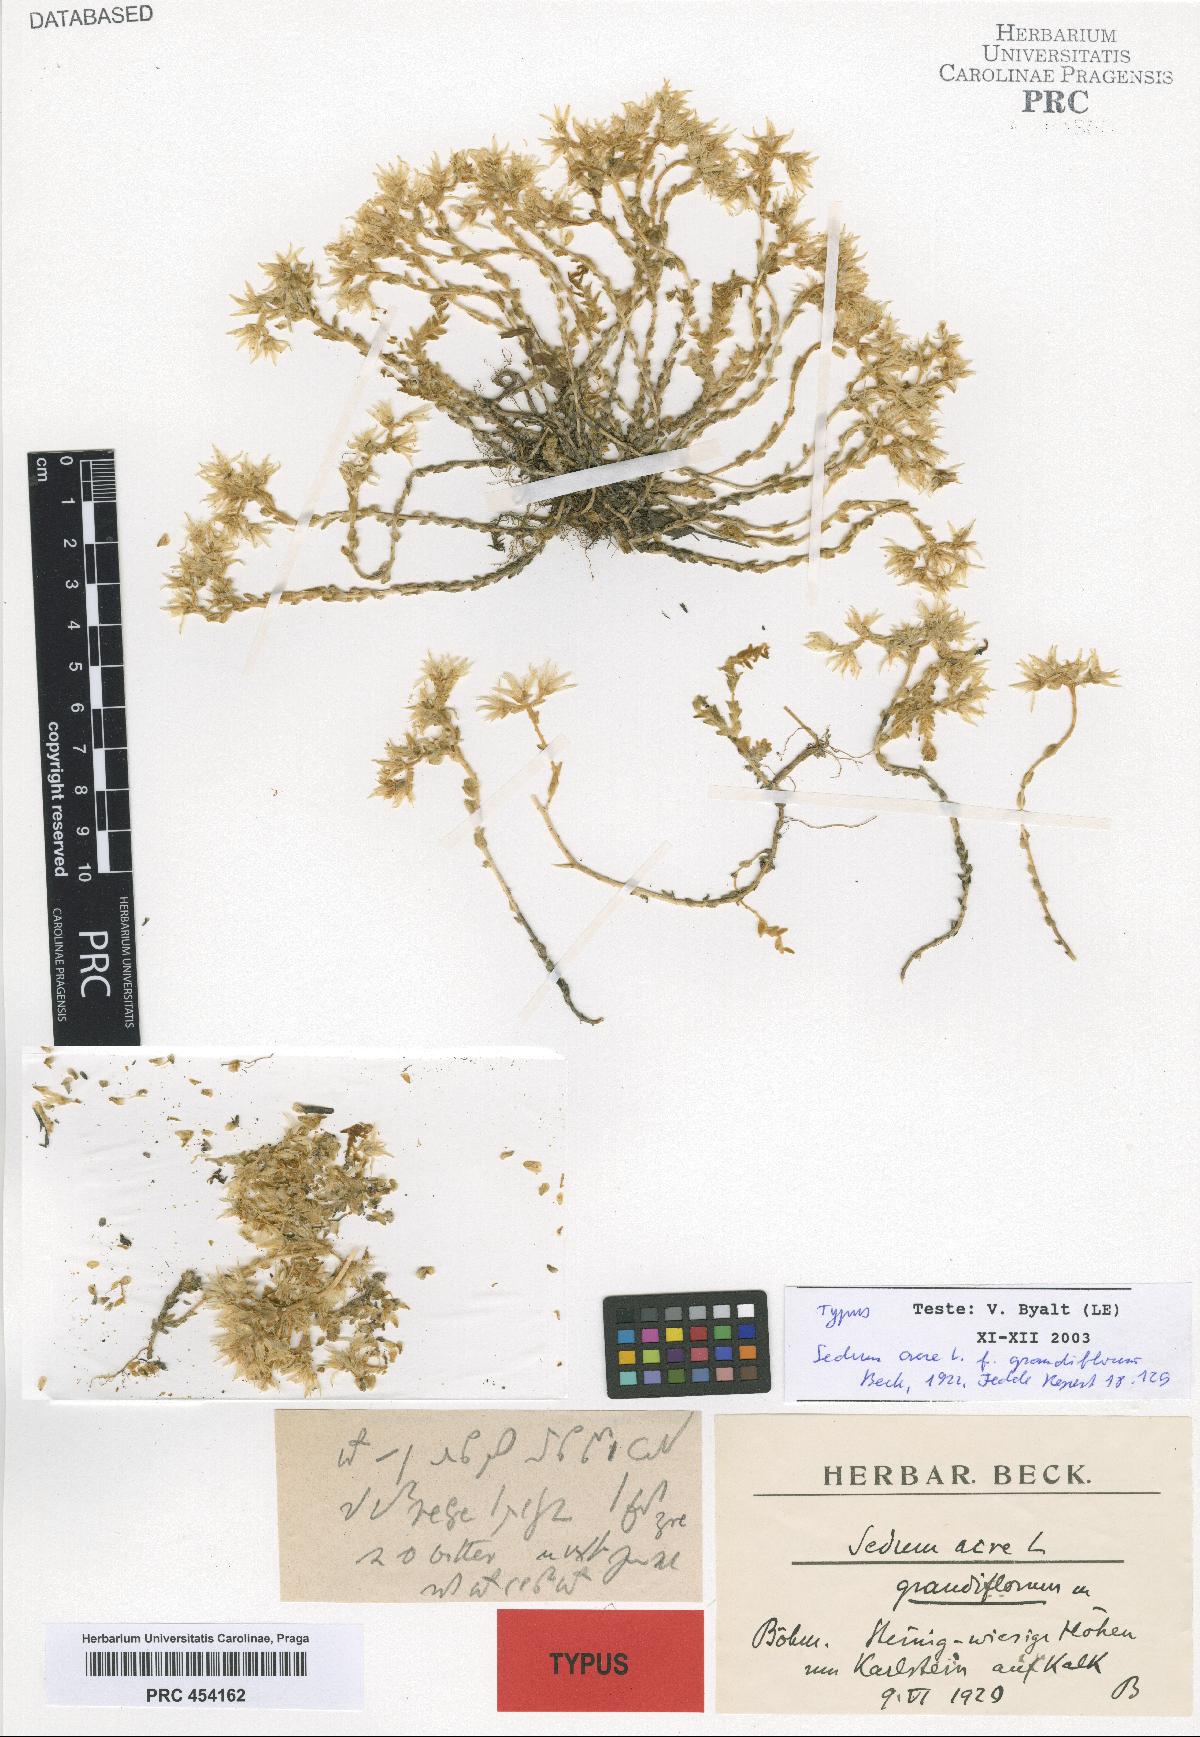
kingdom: Plantae
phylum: Tracheophyta
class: Magnoliopsida
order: Saxifragales
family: Crassulaceae
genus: Sedum
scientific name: Sedum acre
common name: Biting stonecrop
